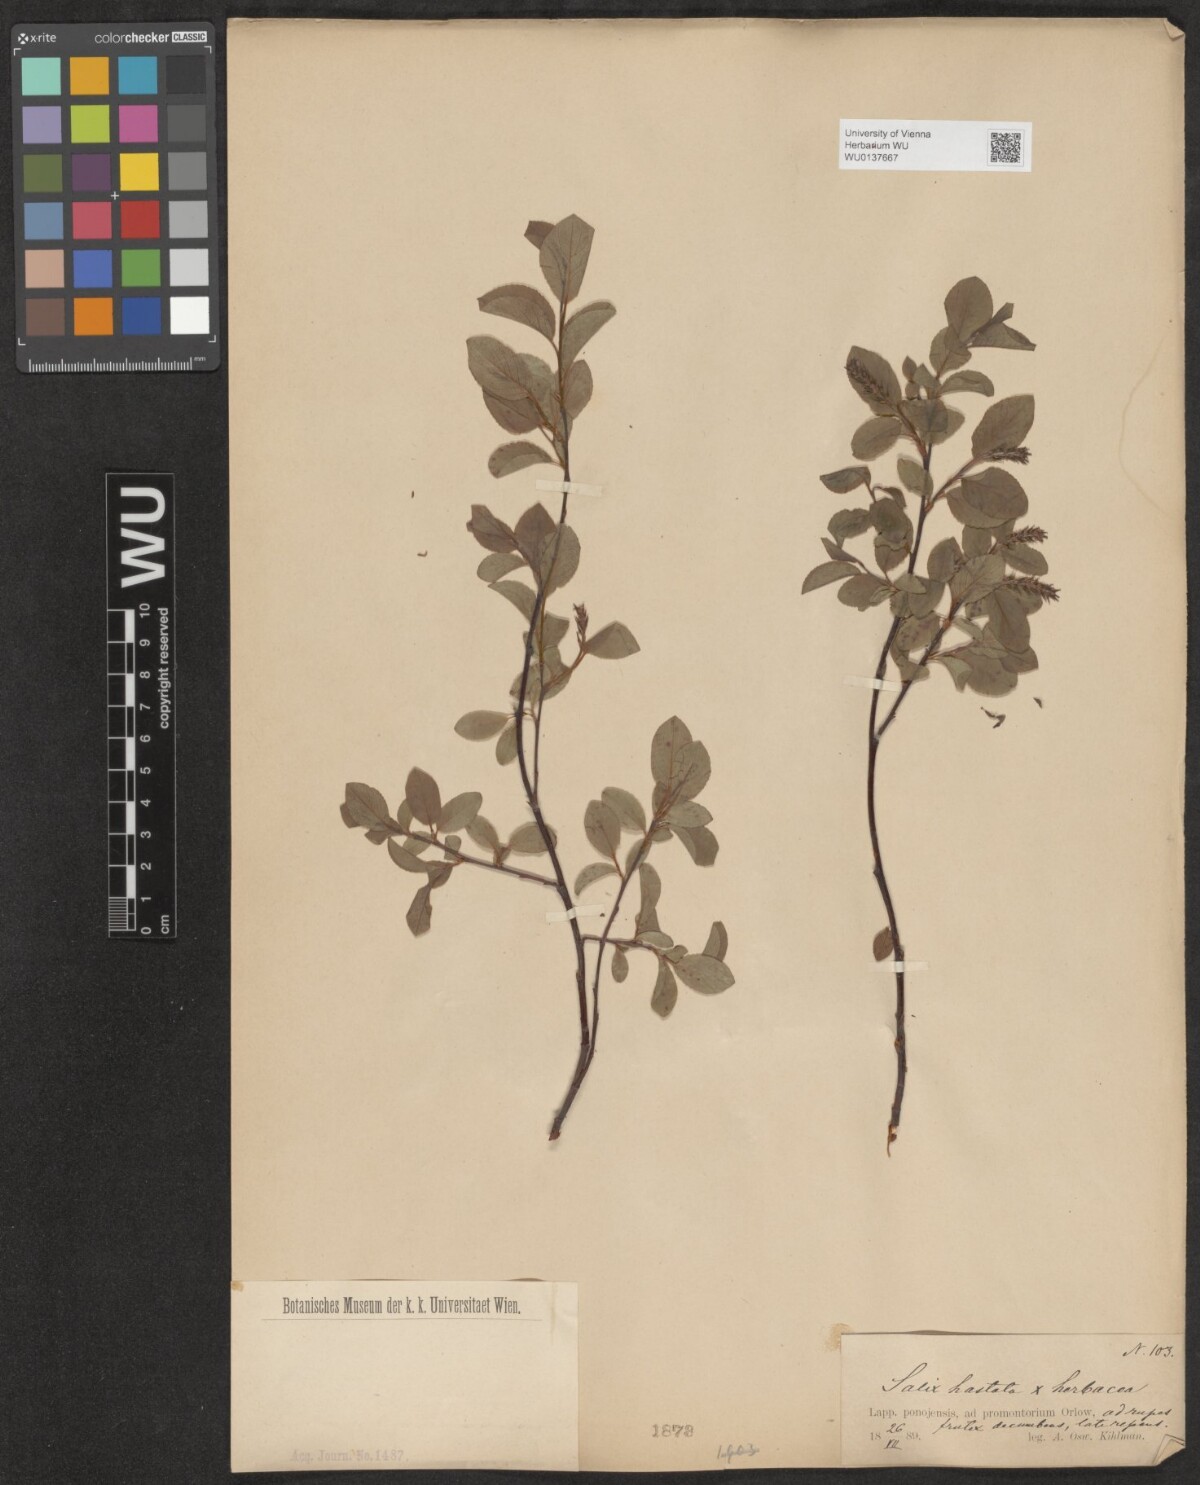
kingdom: Plantae
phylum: Tracheophyta
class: Magnoliopsida
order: Malpighiales
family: Salicaceae
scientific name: Salicaceae
